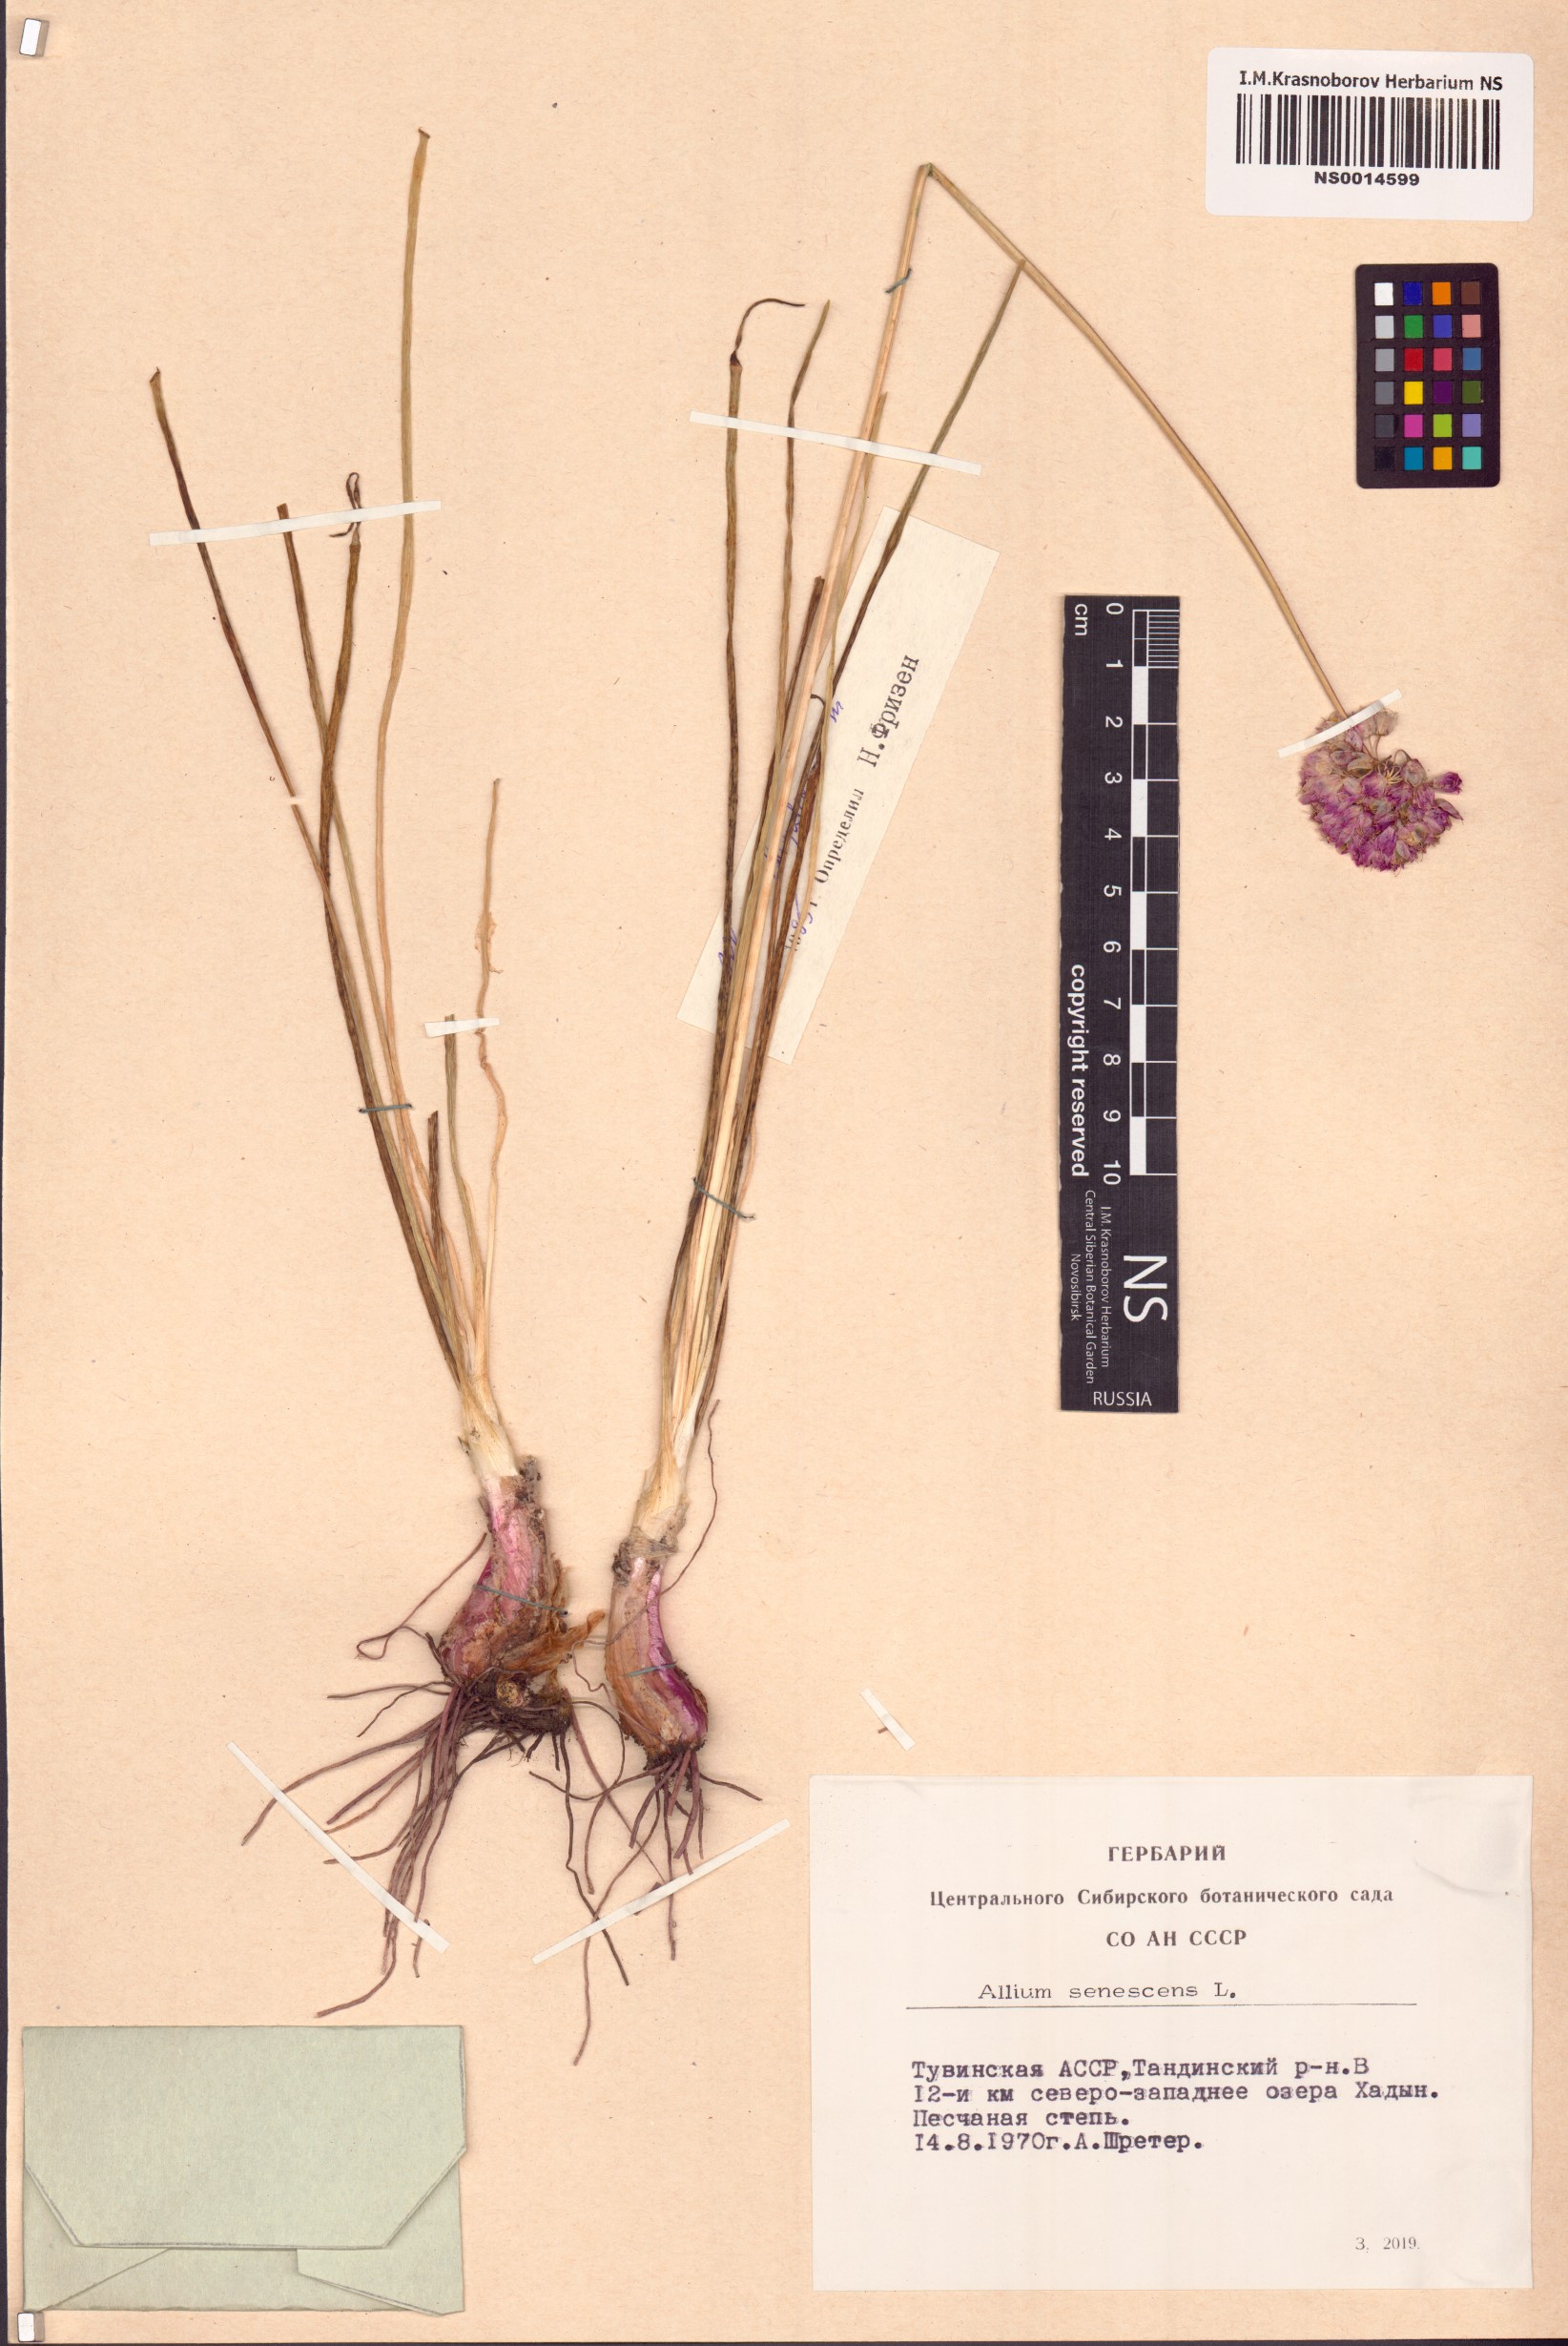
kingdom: Plantae
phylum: Tracheophyta
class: Liliopsida
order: Asparagales
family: Amaryllidaceae
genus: Allium
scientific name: Allium burjaticum
